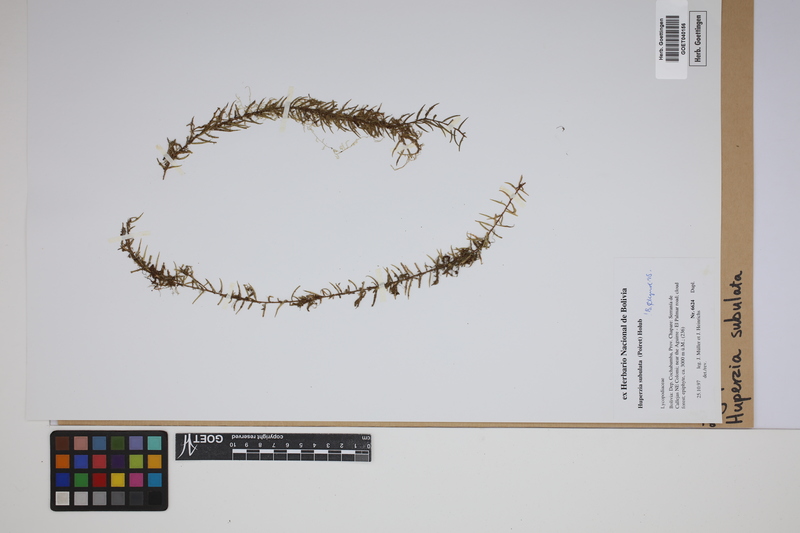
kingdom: Plantae
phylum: Tracheophyta
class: Lycopodiopsida
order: Lycopodiales
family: Lycopodiaceae
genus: Phlegmariurus
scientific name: Phlegmariurus subulatus
